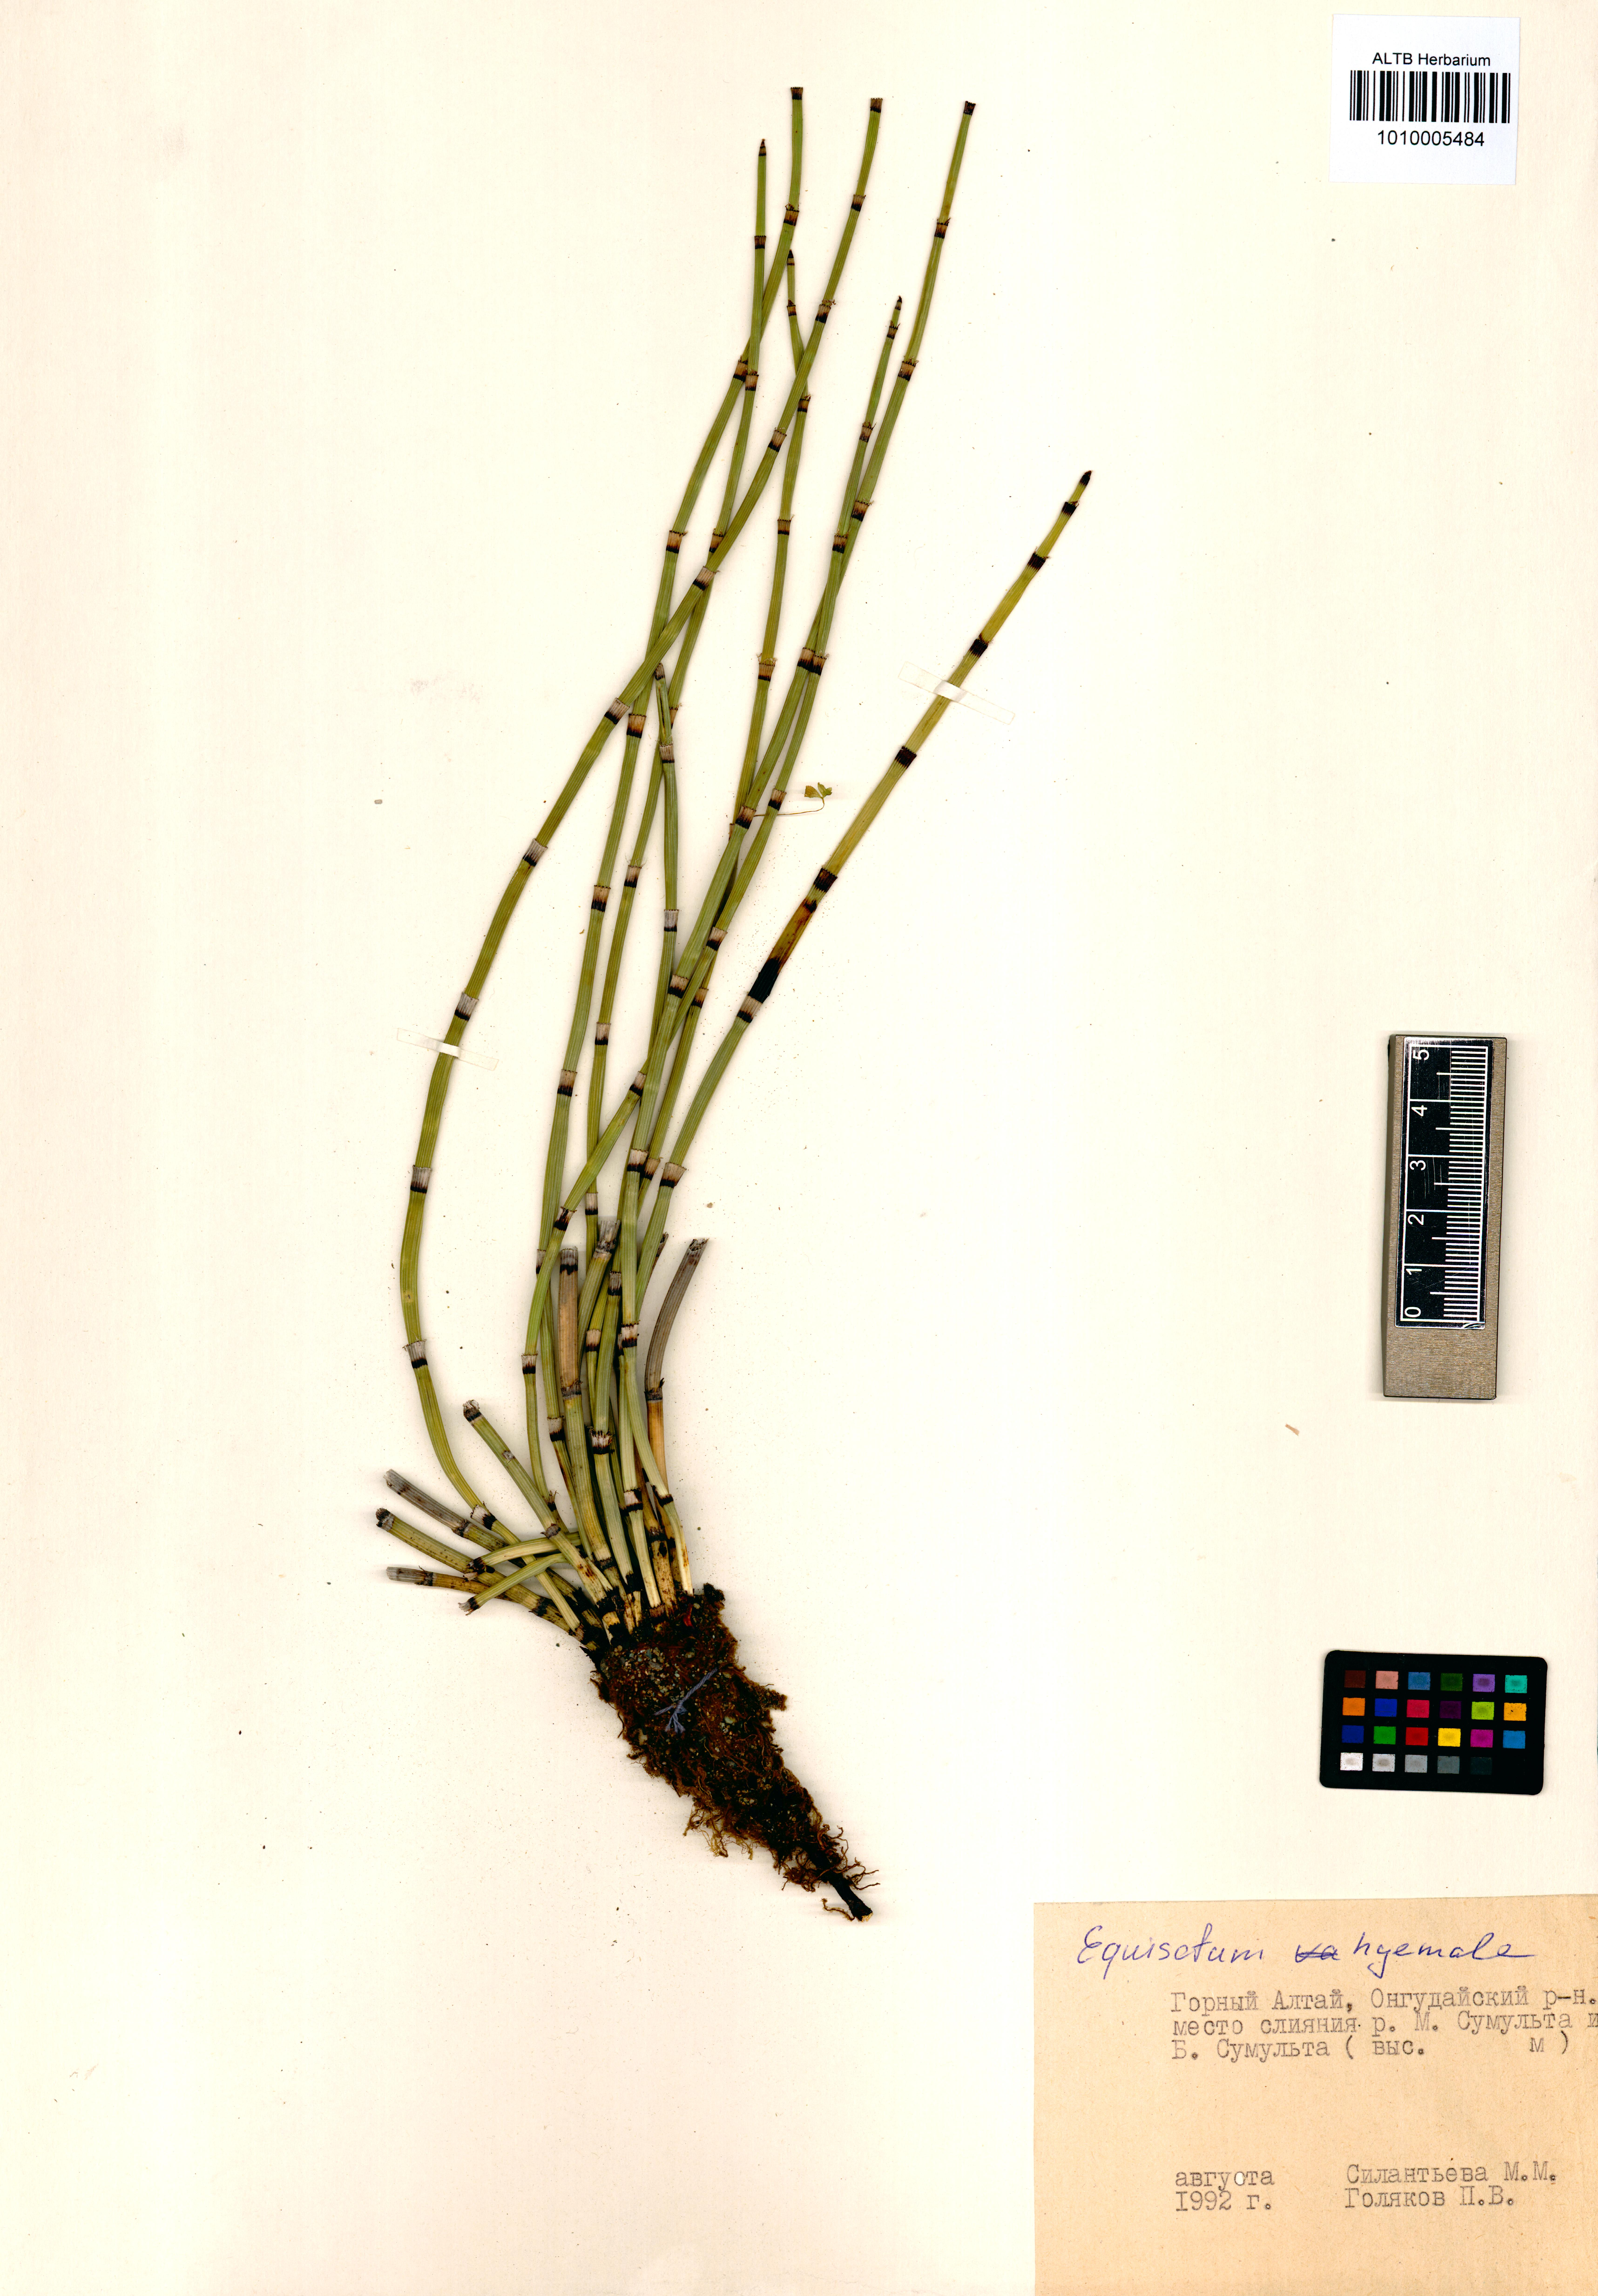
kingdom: Plantae
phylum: Tracheophyta
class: Polypodiopsida
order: Equisetales
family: Equisetaceae
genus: Equisetum
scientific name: Equisetum hyemale
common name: Rough horsetail
